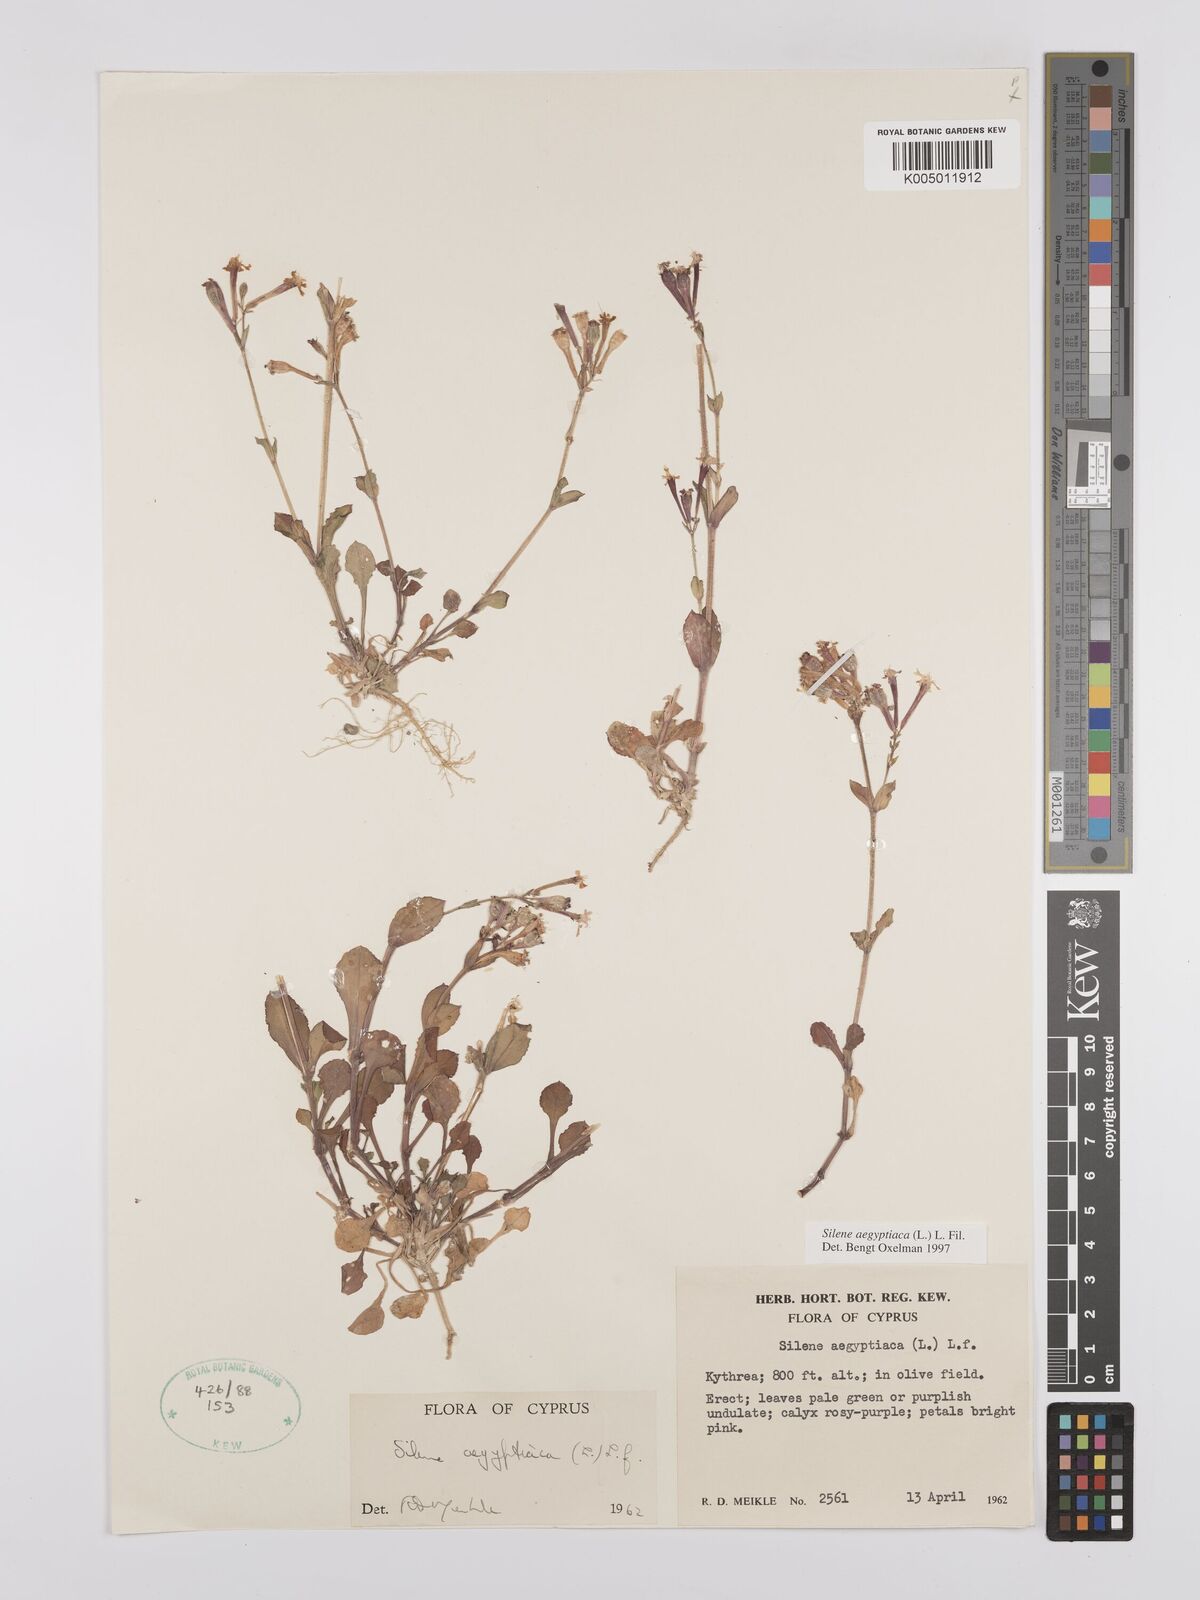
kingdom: Plantae
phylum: Tracheophyta
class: Magnoliopsida
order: Caryophyllales
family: Caryophyllaceae
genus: Silene
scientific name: Silene aegyptiaca
